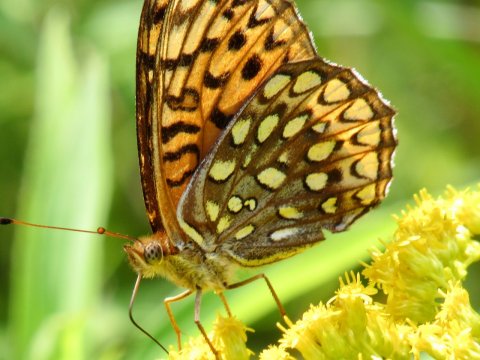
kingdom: Animalia
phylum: Arthropoda
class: Insecta
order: Lepidoptera
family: Nymphalidae
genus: Speyeria
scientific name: Speyeria atlantis
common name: Atlantis Fritillary
